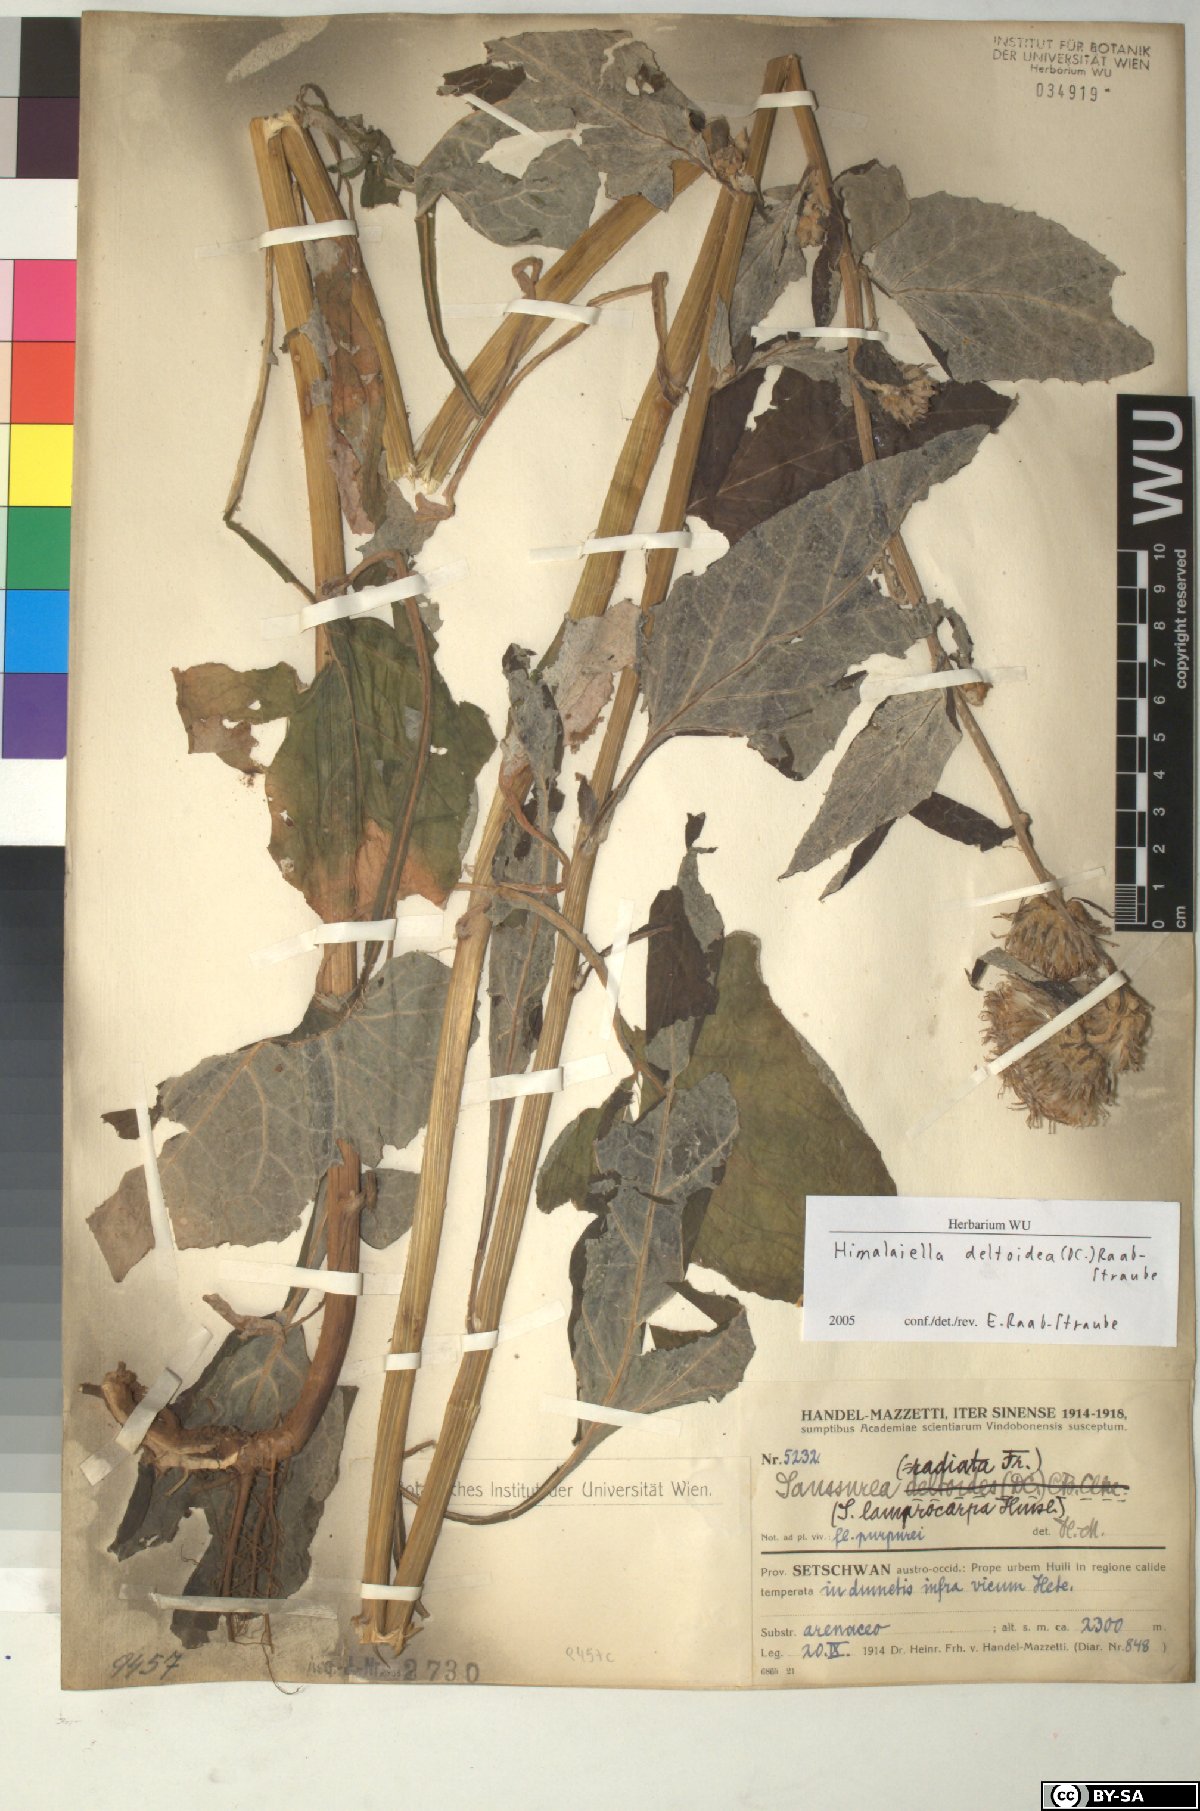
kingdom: Plantae
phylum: Tracheophyta
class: Magnoliopsida
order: Asterales
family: Asteraceae
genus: Jurinea
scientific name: Jurinea deltoidea
